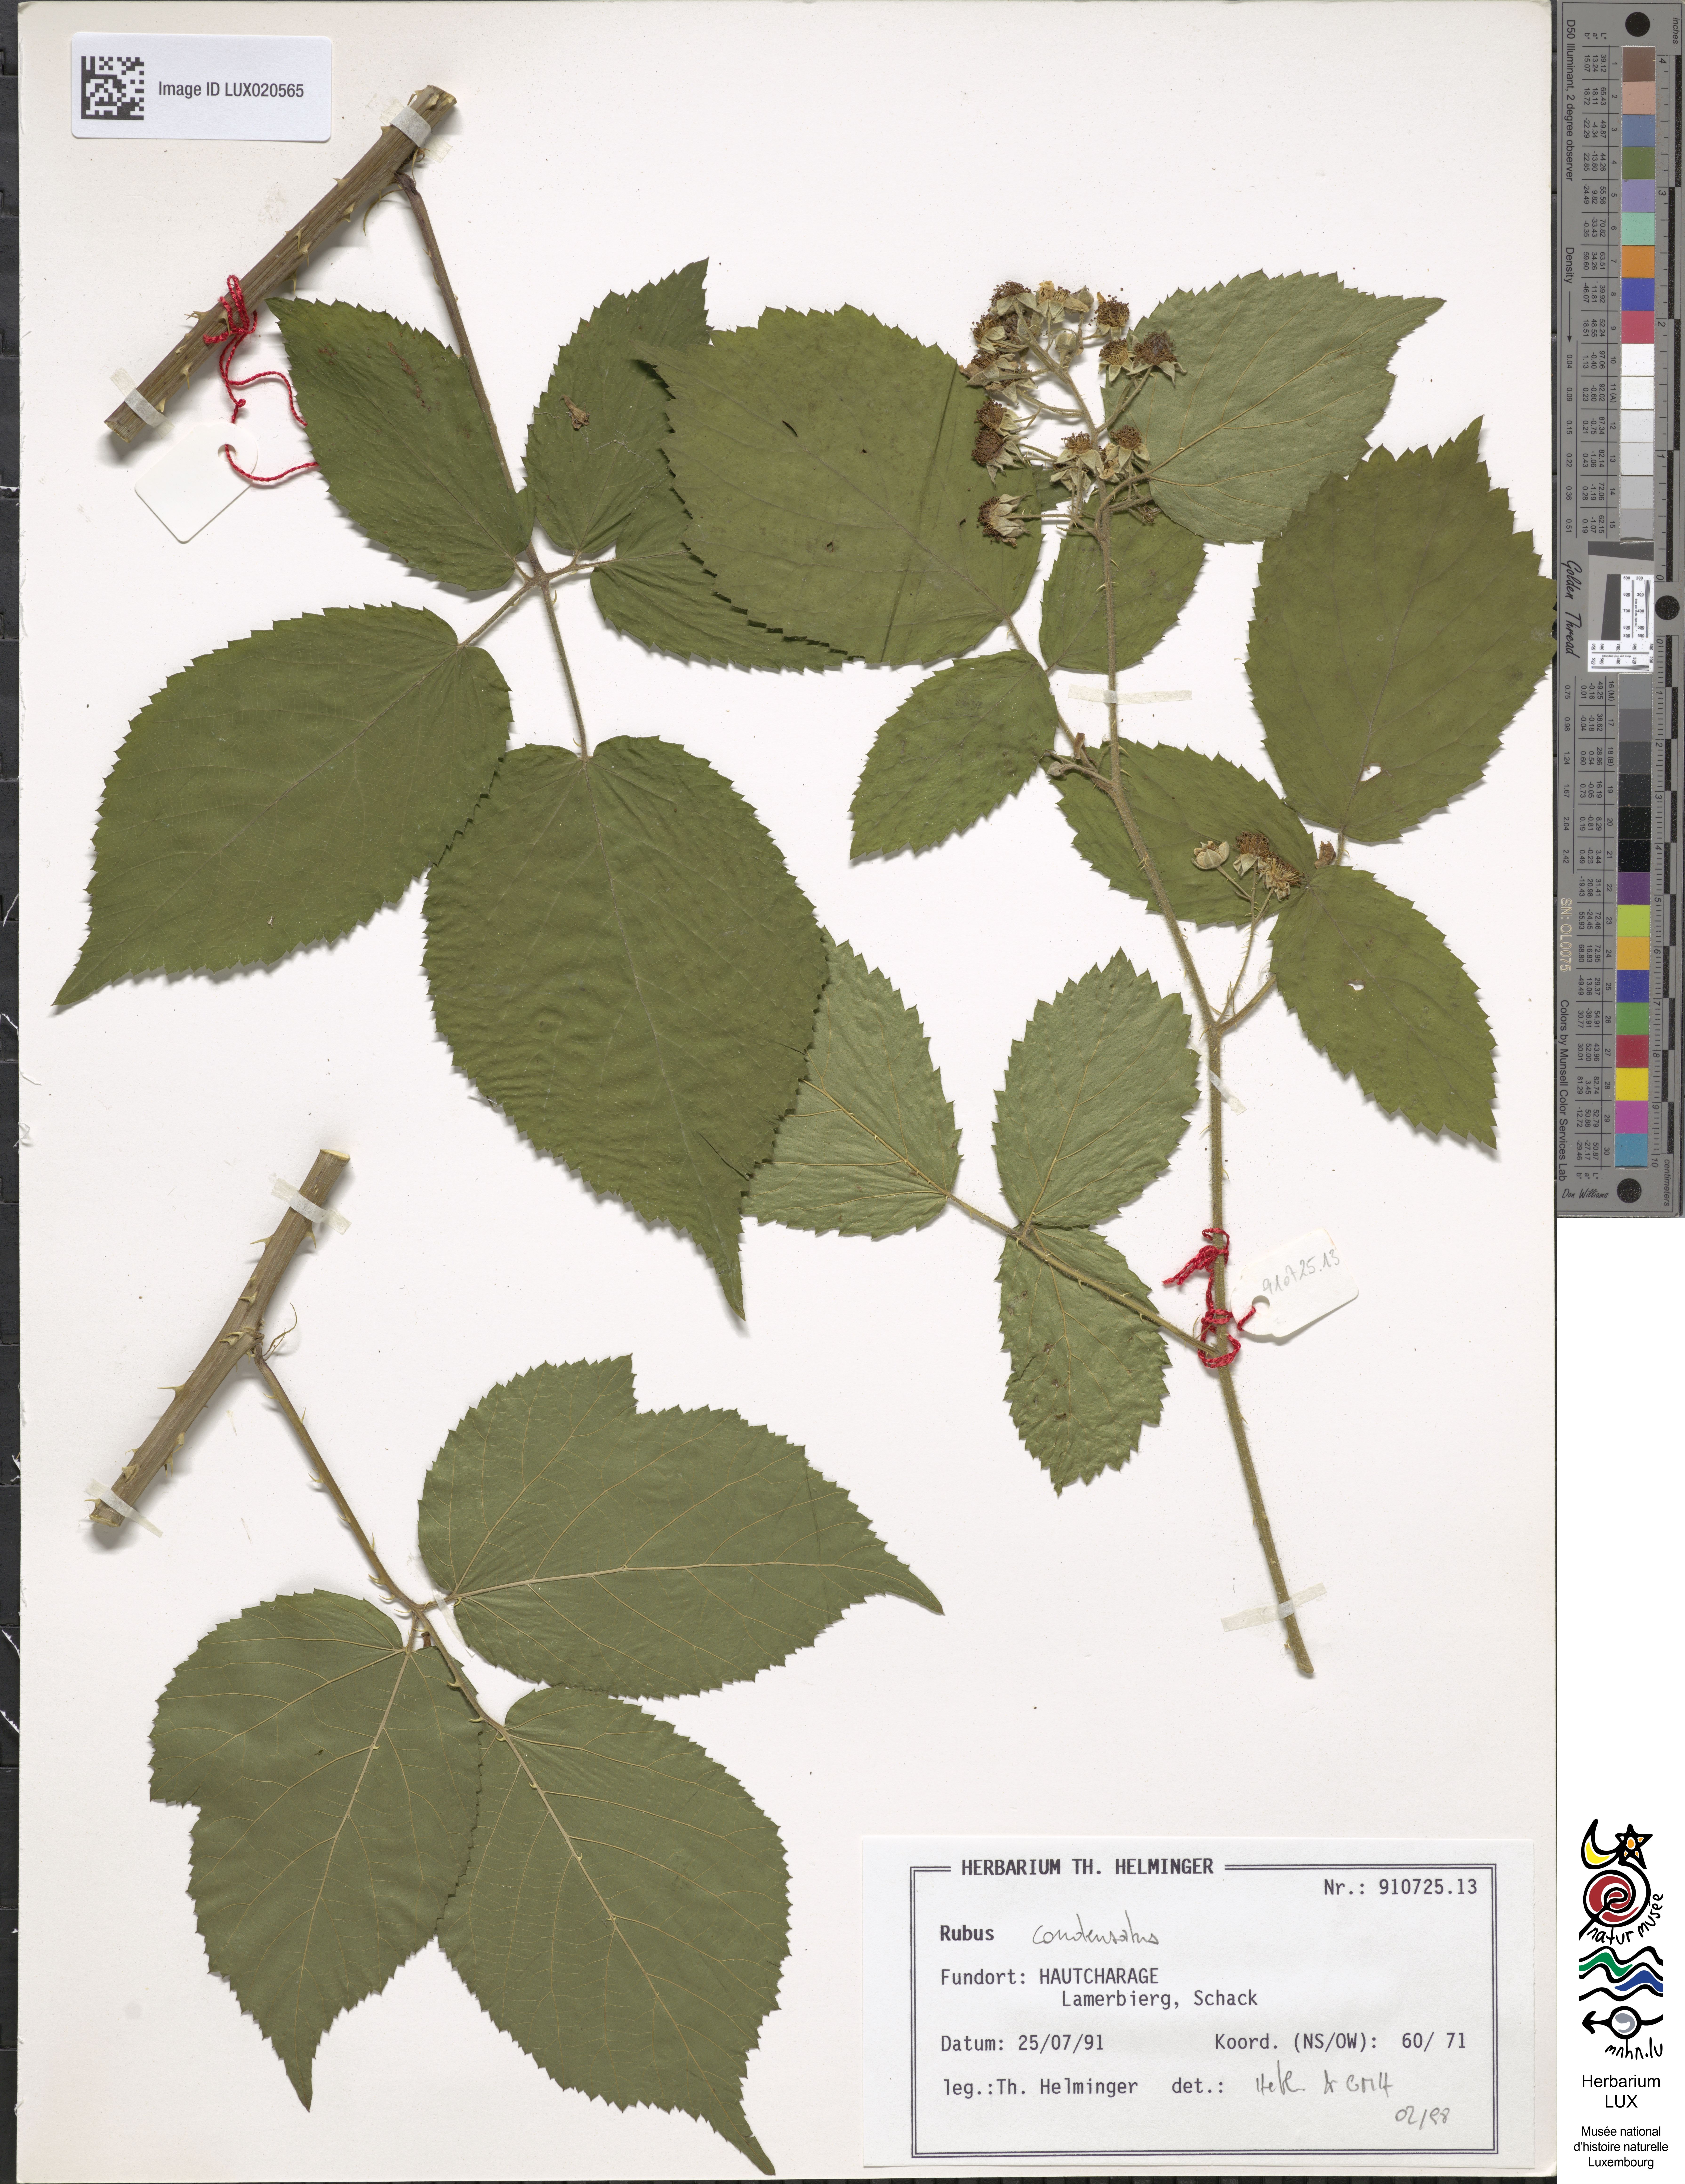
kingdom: Plantae
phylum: Tracheophyta
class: Magnoliopsida
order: Rosales
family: Rosaceae
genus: Rubus
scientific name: Rubus condensatus
